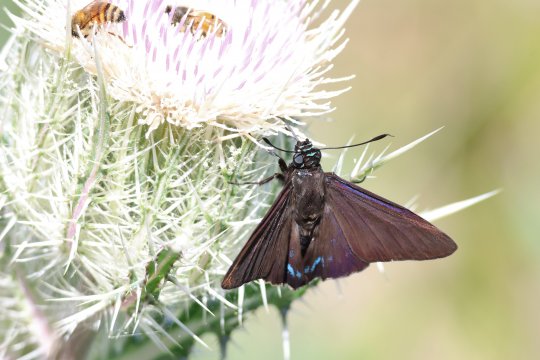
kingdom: Animalia
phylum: Arthropoda
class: Insecta
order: Lepidoptera
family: Hesperiidae
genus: Phocides
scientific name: Phocides pigmalion
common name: Mangrove Skipper
